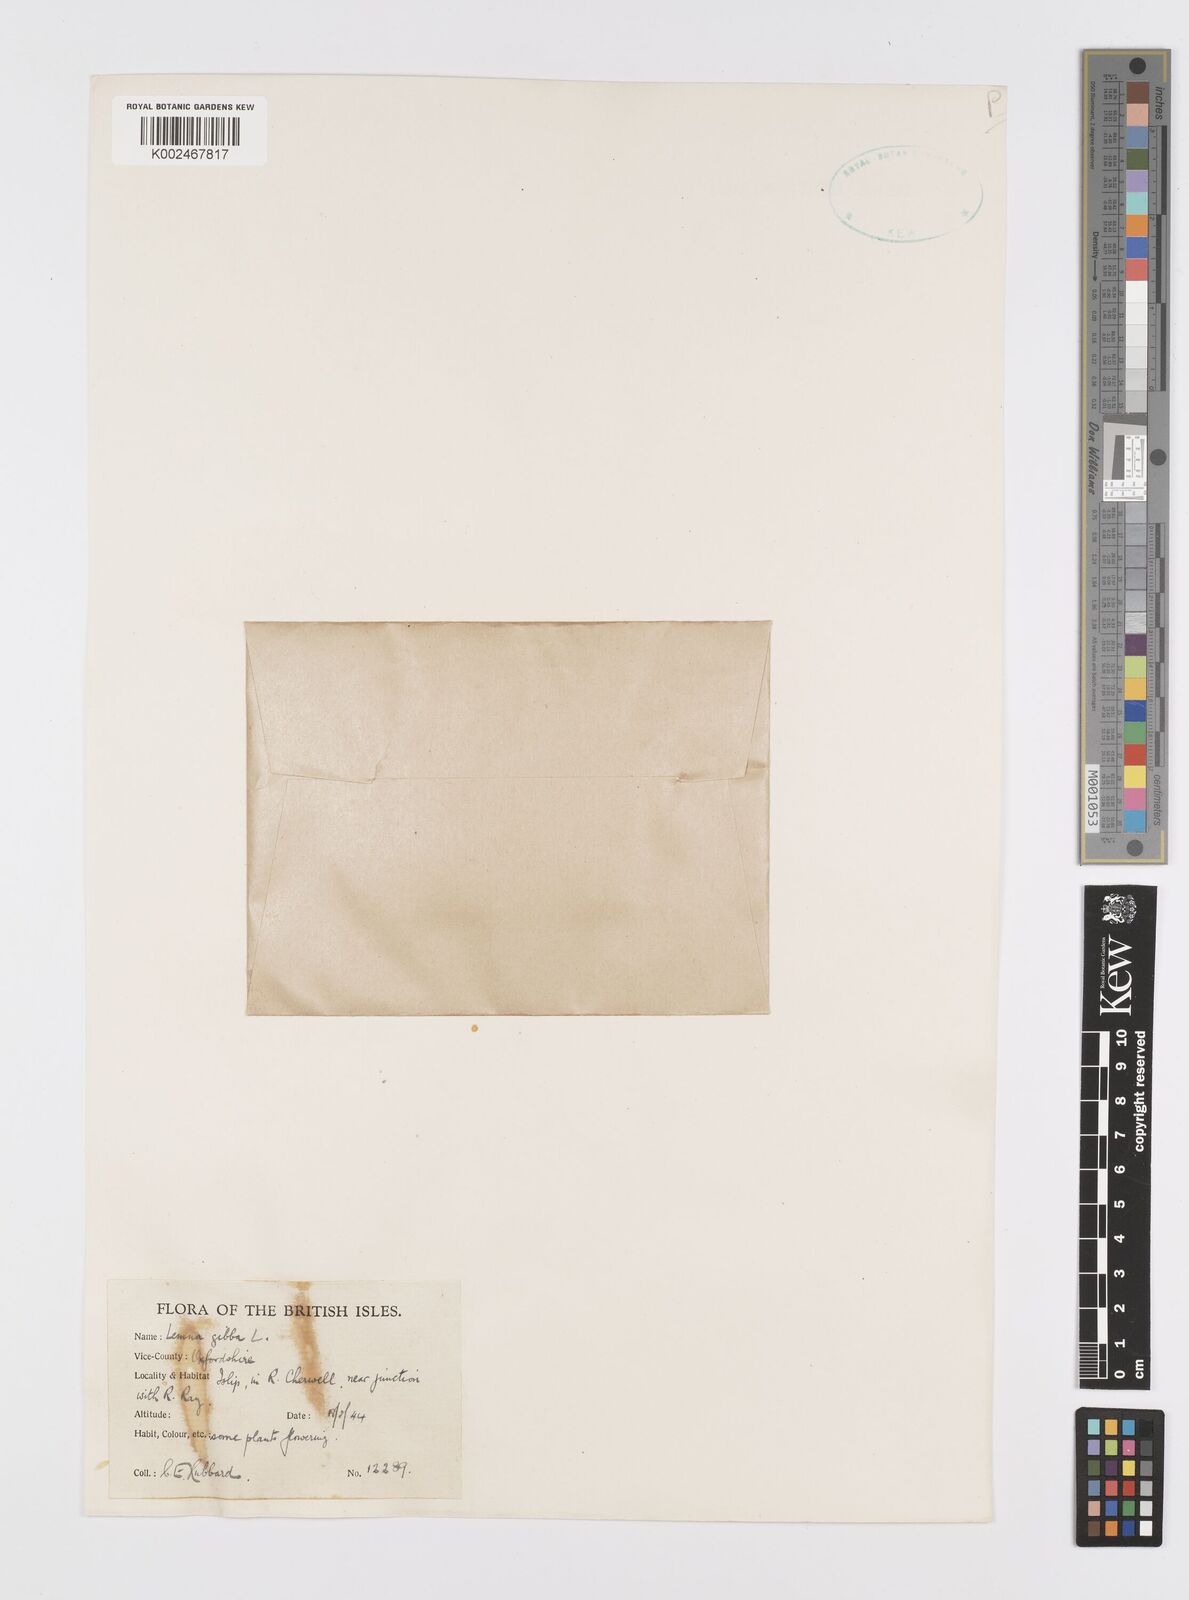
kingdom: Plantae
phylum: Tracheophyta
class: Liliopsida
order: Alismatales
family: Araceae
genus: Lemna
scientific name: Lemna gibba
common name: Fat duckweed
